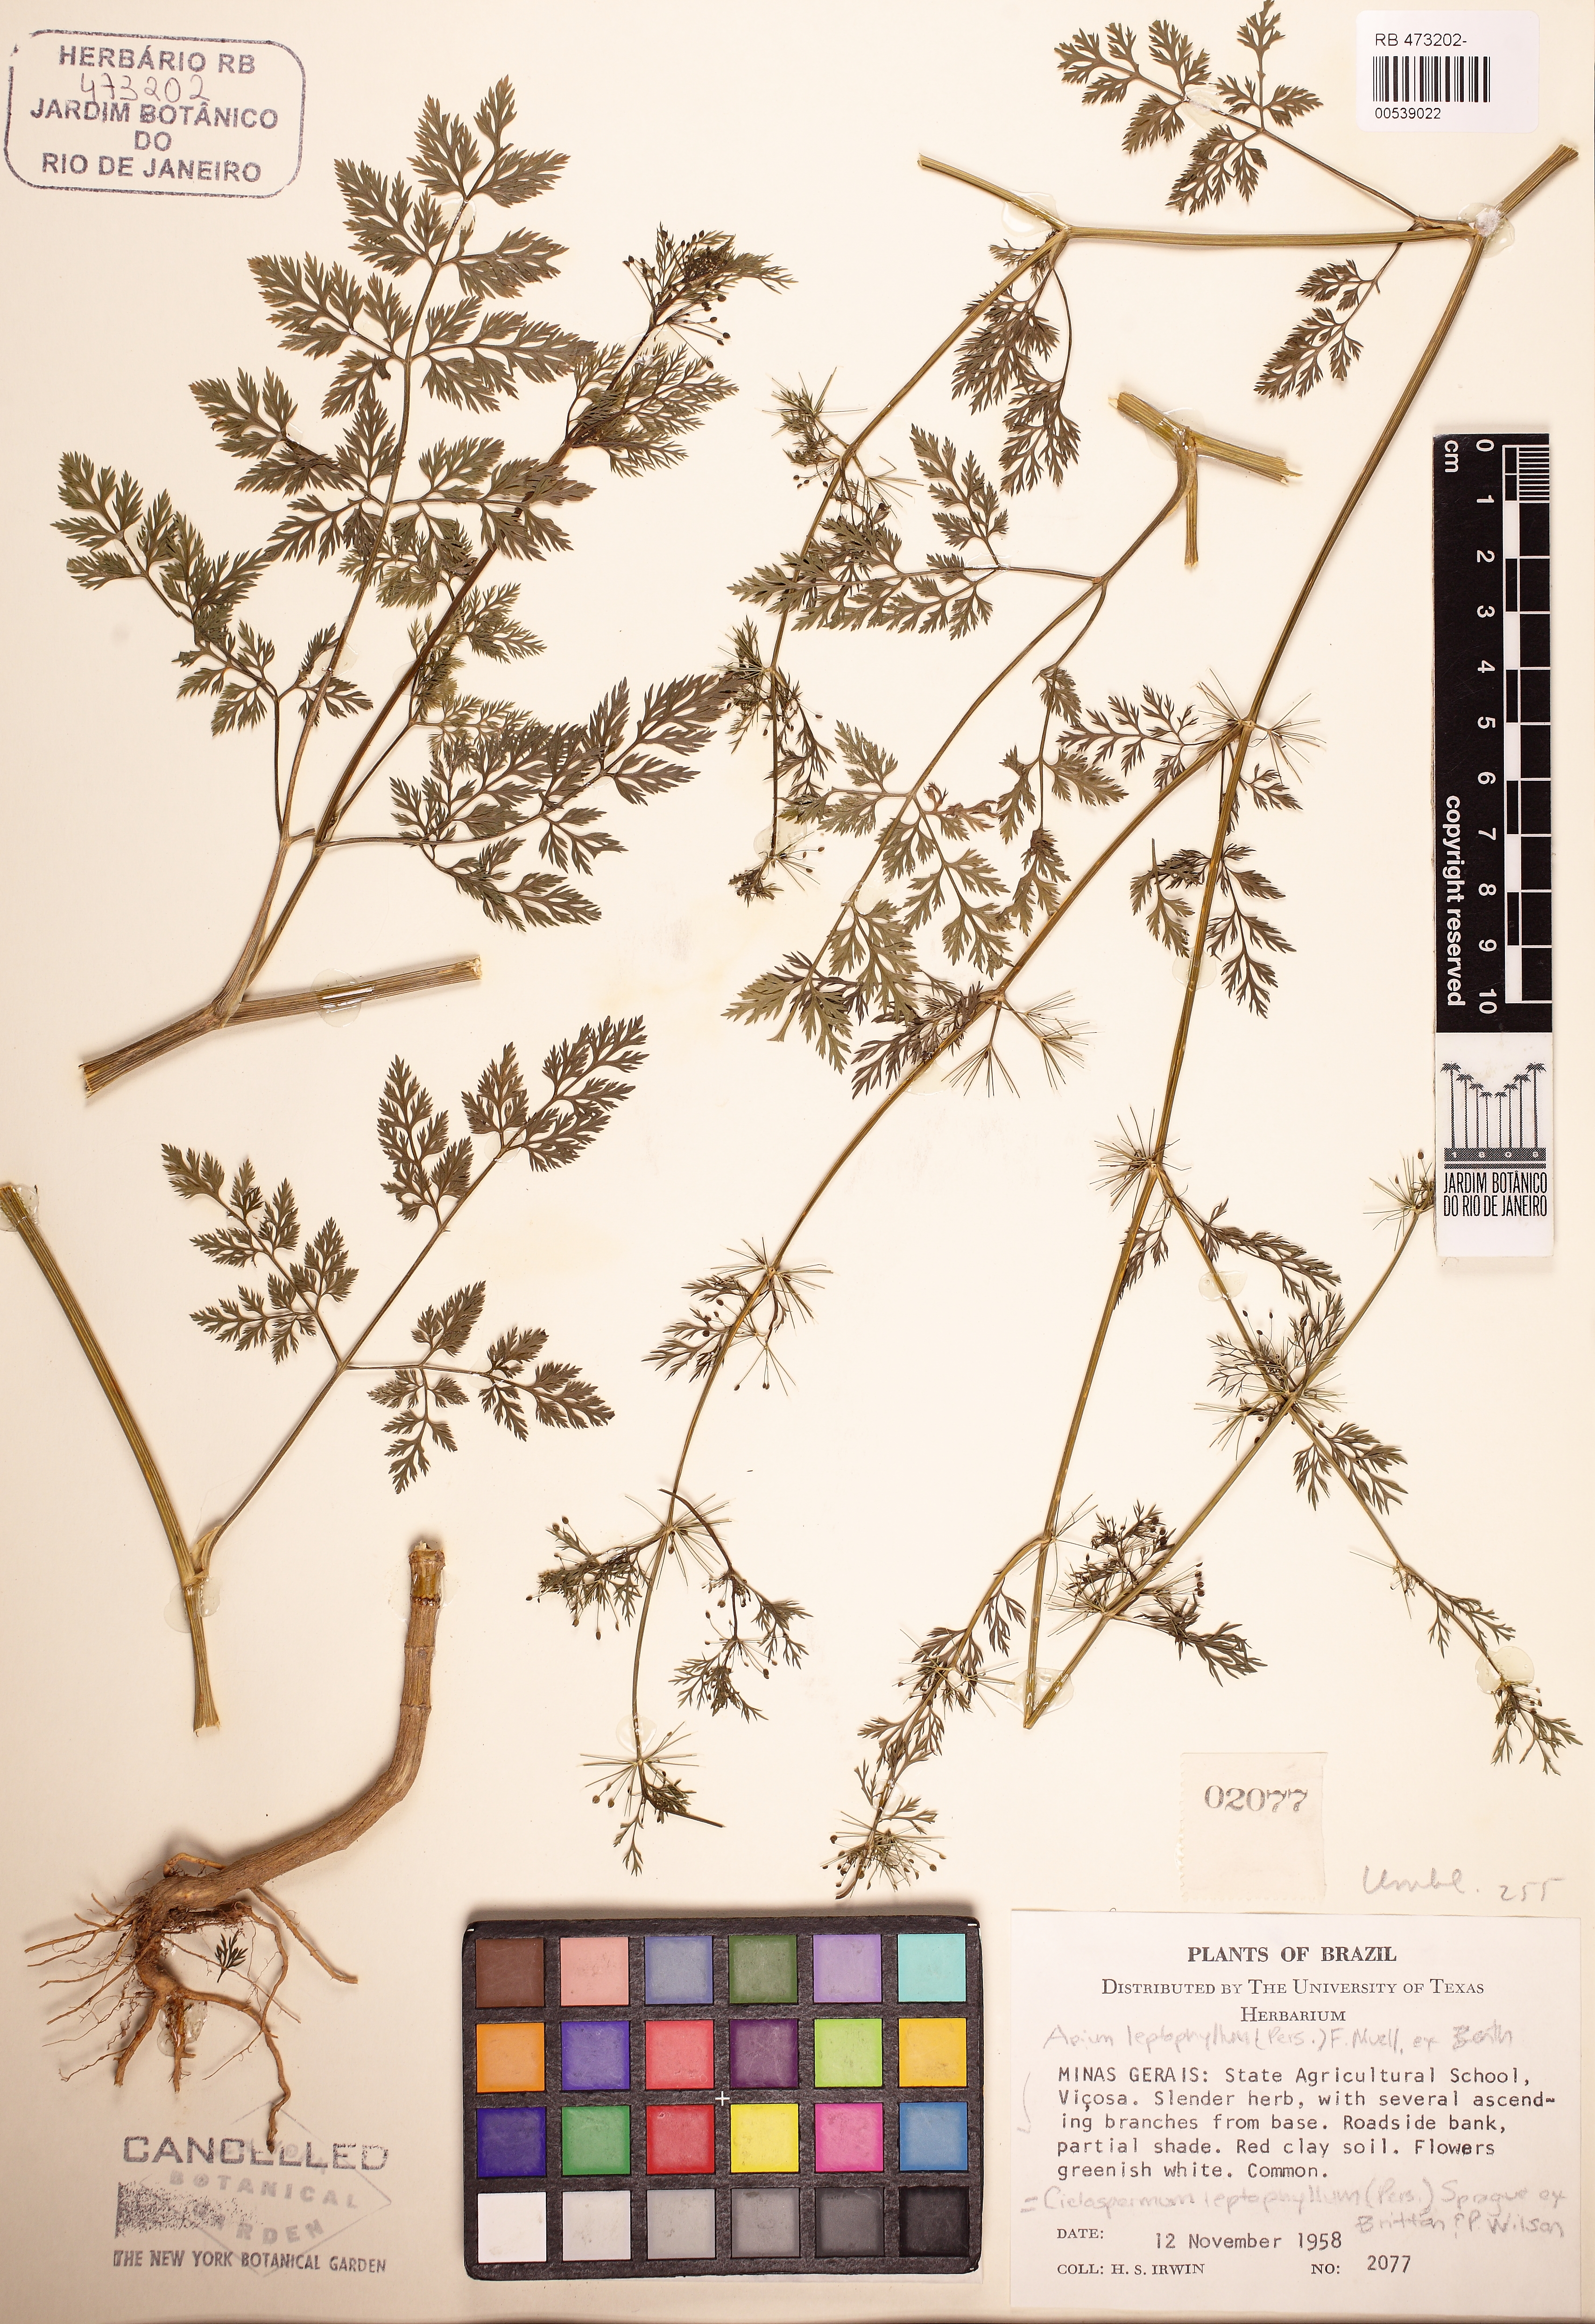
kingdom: Plantae
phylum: Tracheophyta
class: Magnoliopsida
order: Apiales
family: Apiaceae
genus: Cyclospermum
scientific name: Cyclospermum leptophyllum
